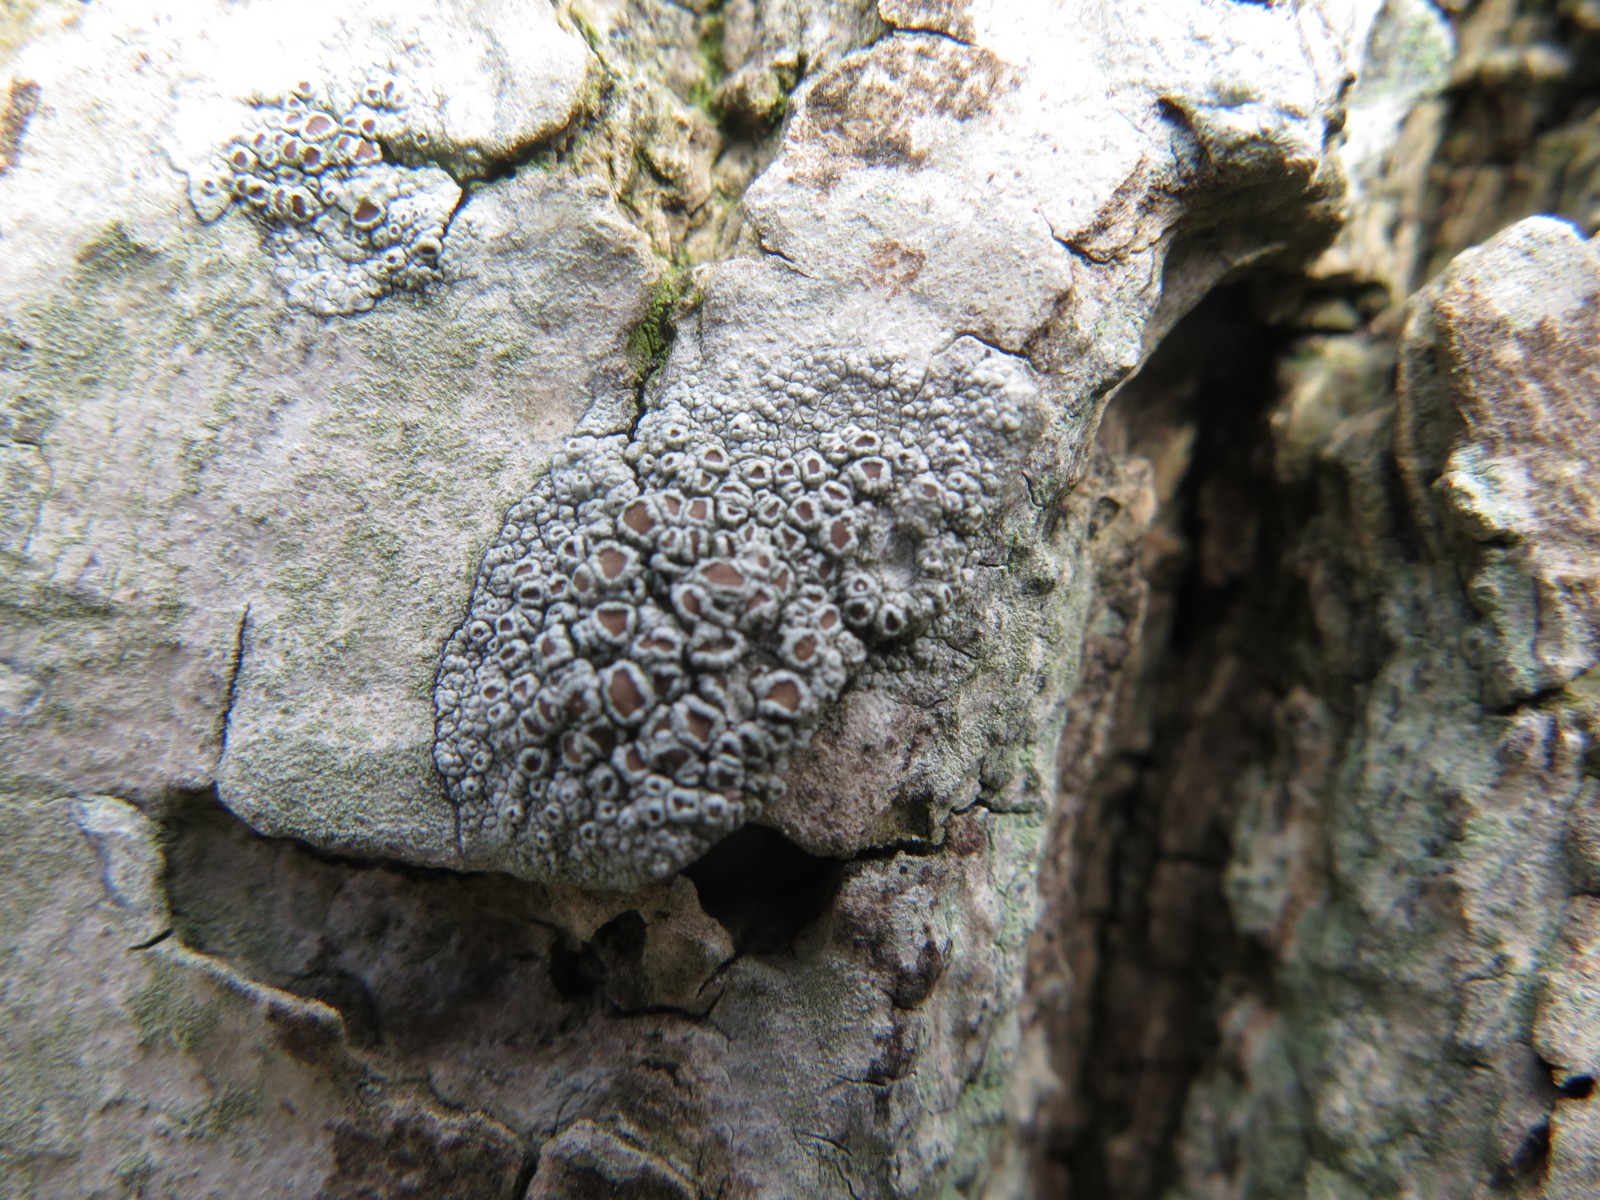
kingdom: Fungi
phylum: Ascomycota
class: Lecanoromycetes
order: Lecanorales
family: Lecanoraceae
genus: Lecanora
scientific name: Lecanora chlarotera
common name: brun kantskivelav
